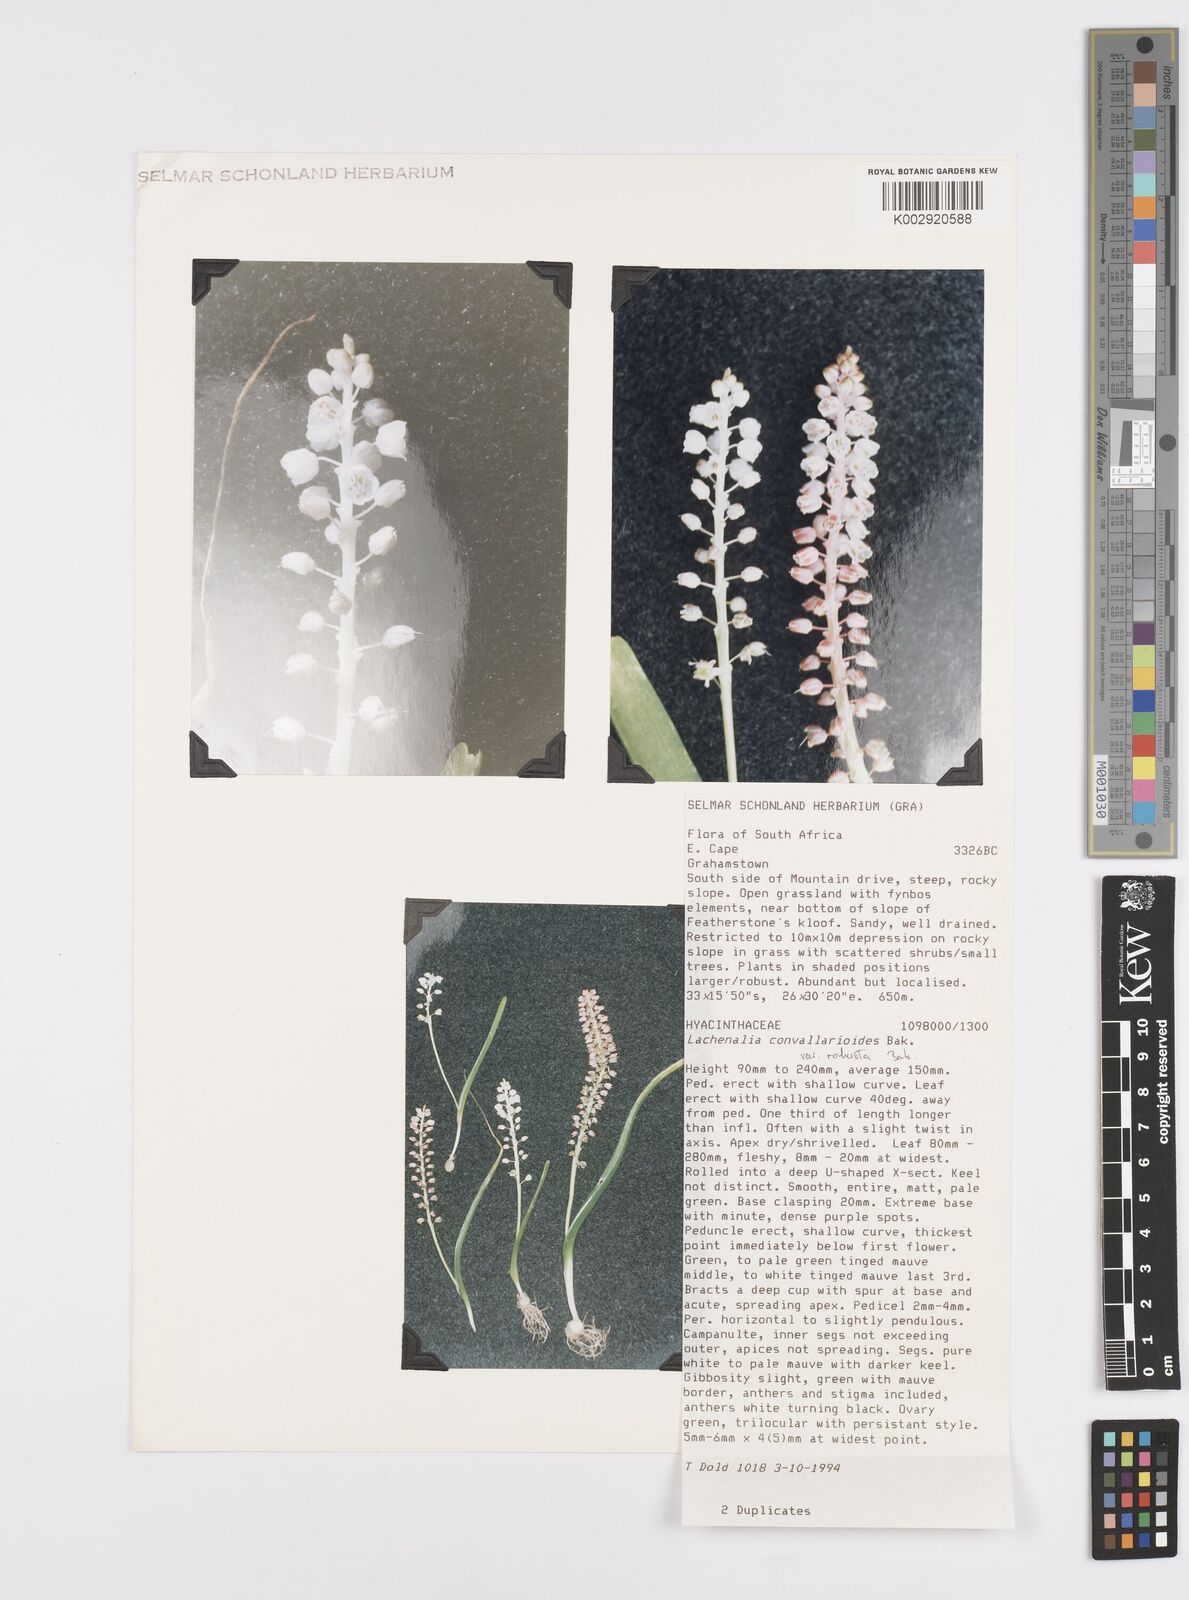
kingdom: Plantae
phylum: Tracheophyta
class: Liliopsida
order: Asparagales
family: Asparagaceae
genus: Lachenalia
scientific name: Lachenalia convallarioides
